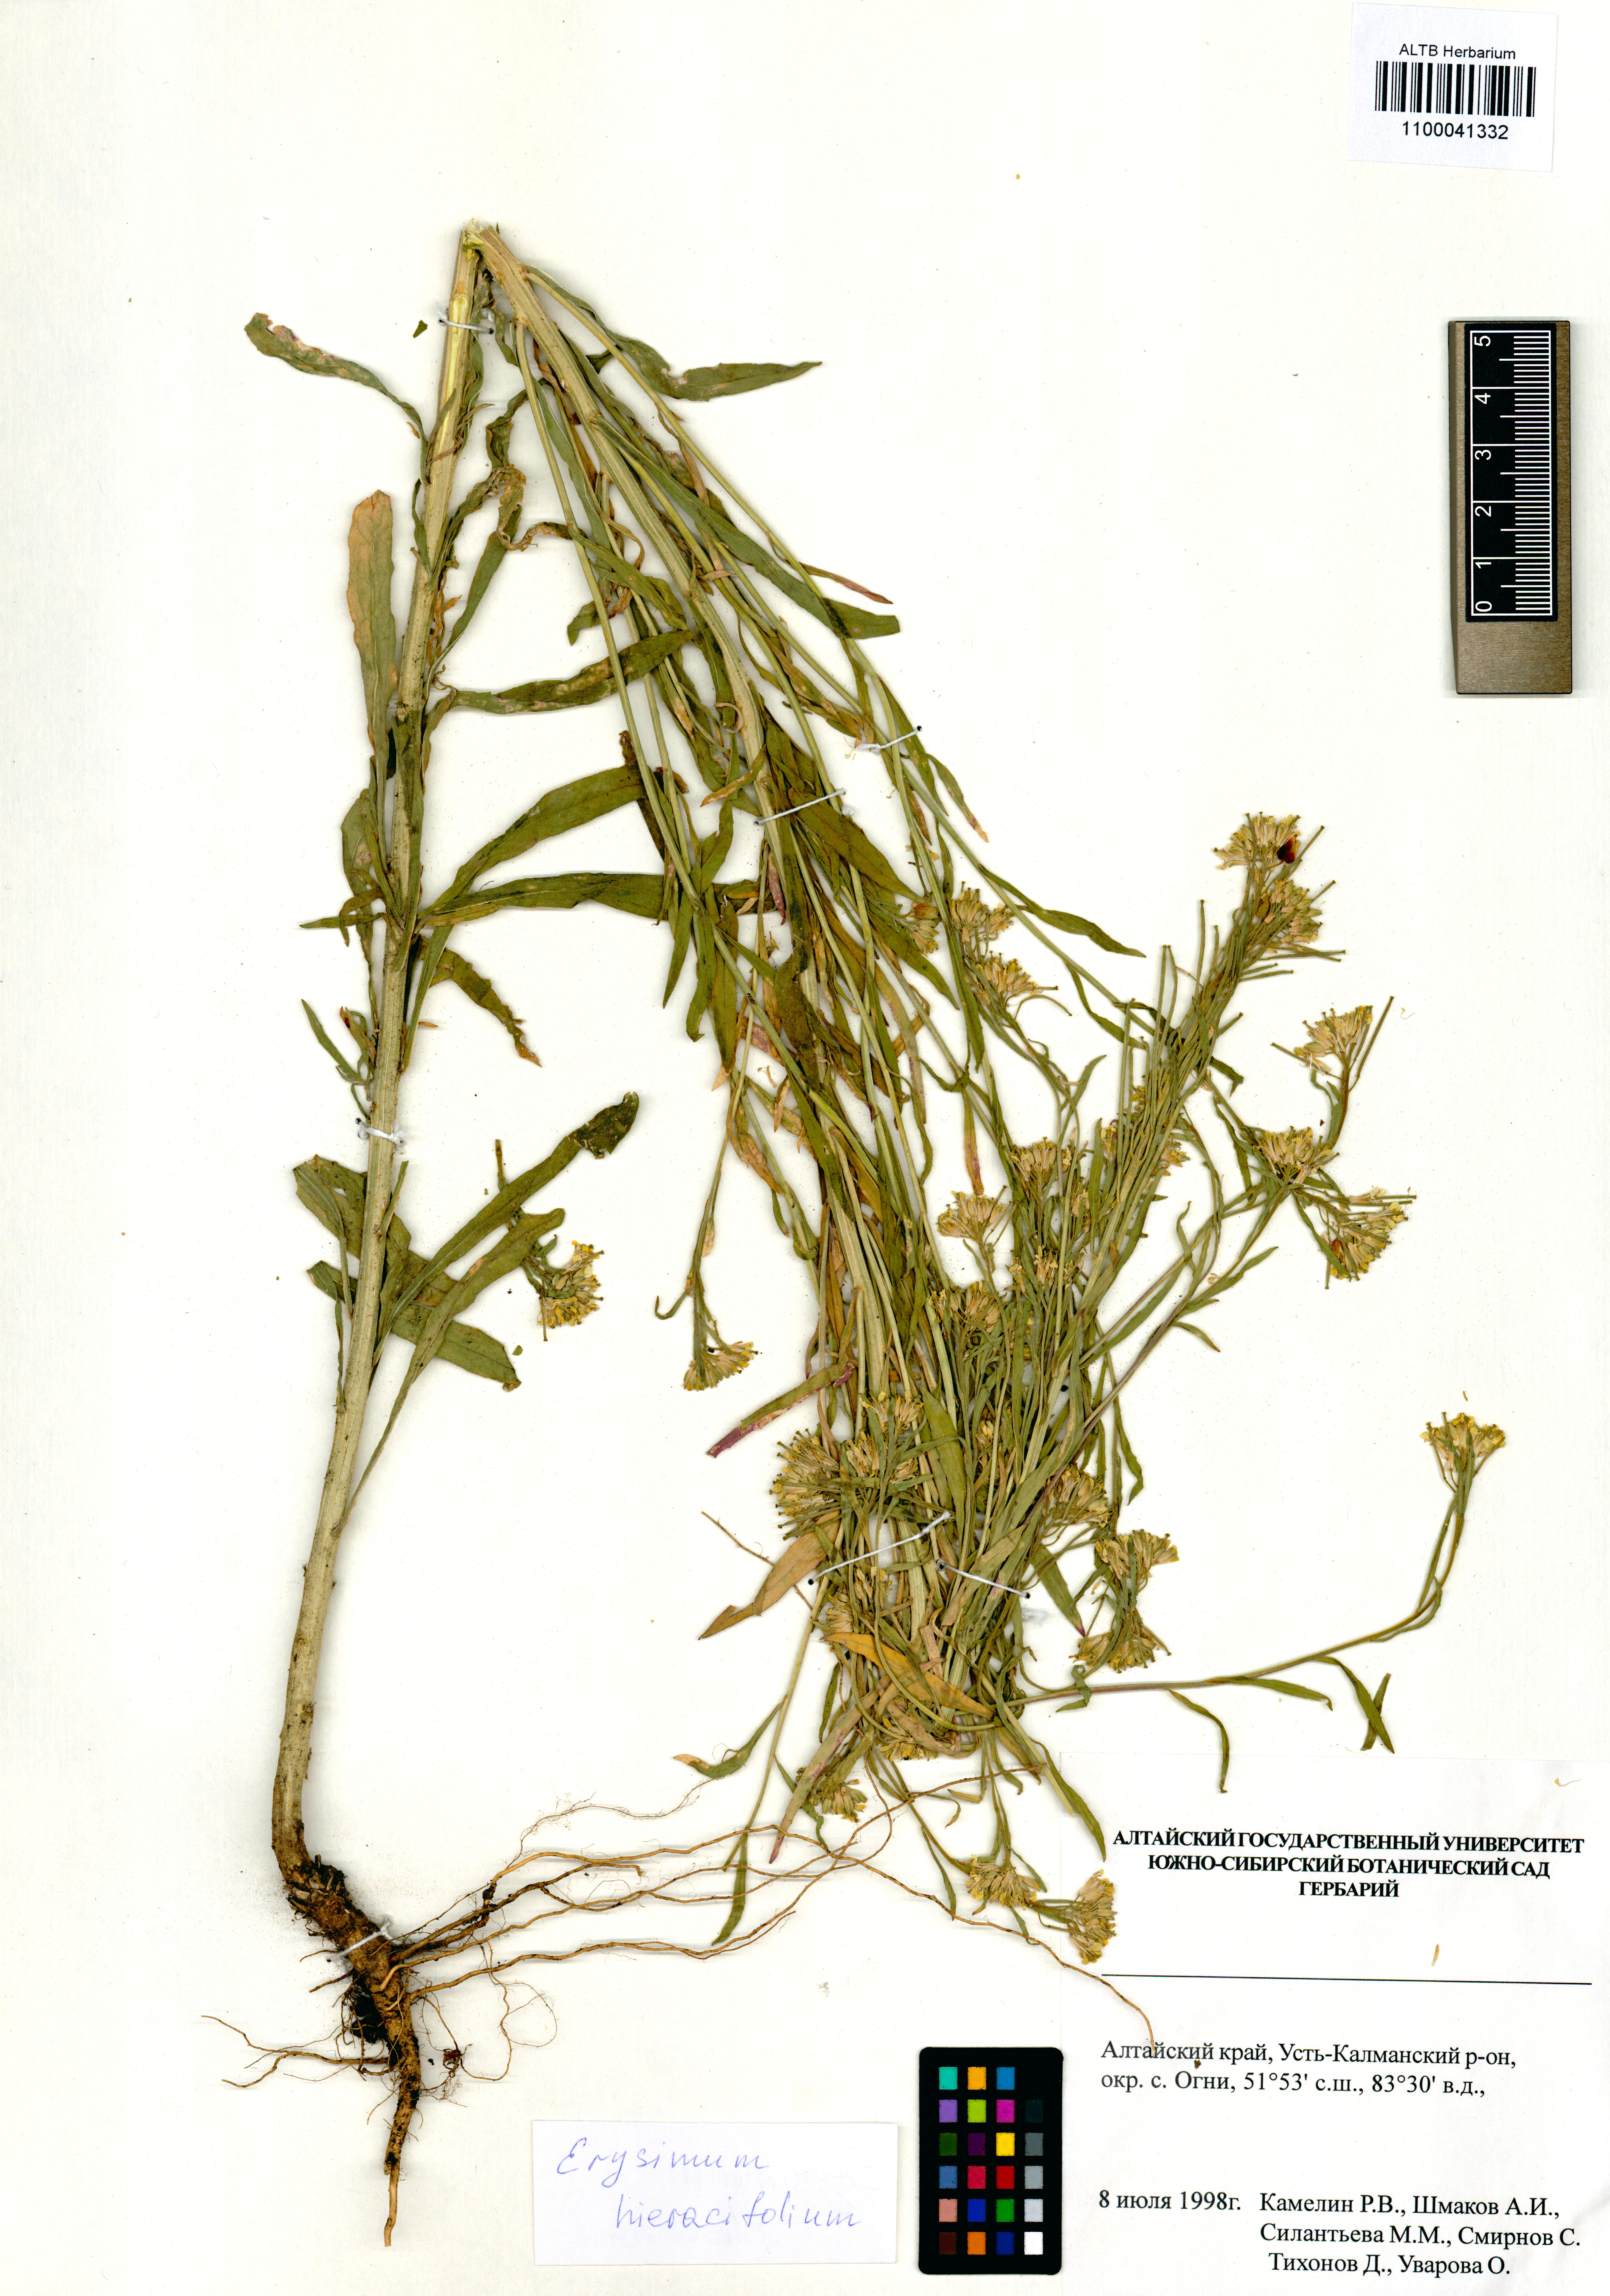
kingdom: Plantae
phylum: Tracheophyta
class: Magnoliopsida
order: Brassicales
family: Brassicaceae
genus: Erysimum
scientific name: Erysimum hieraciifolium
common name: European wallflower
